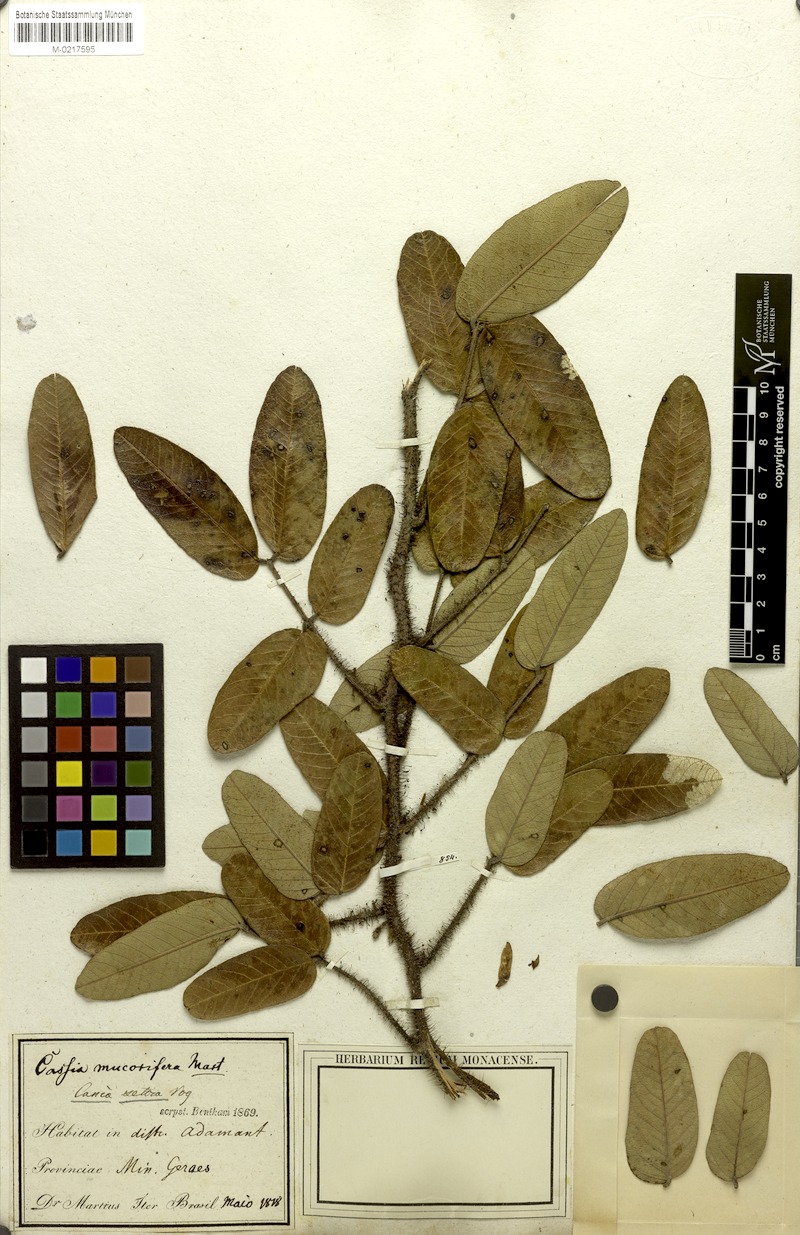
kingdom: Plantae
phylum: Tracheophyta
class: Magnoliopsida
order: Fabales
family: Fabaceae
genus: Chamaecrista
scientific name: Chamaecrista setosa
